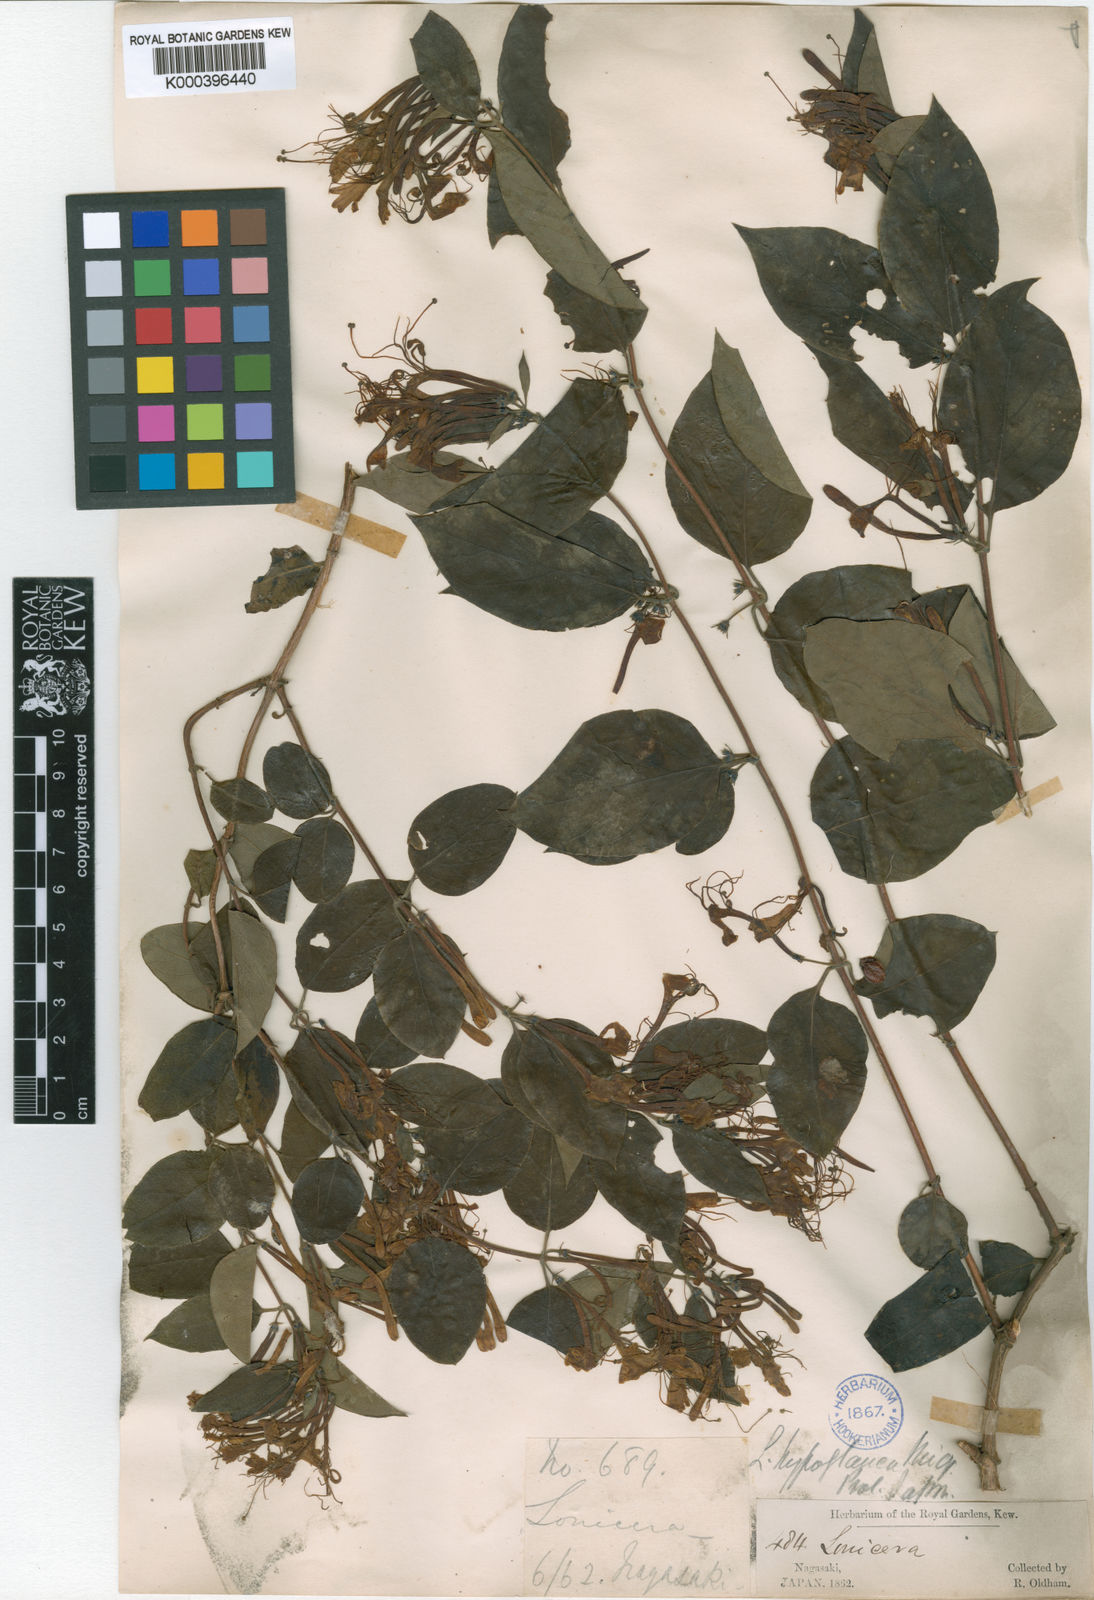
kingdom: Plantae
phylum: Tracheophyta
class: Magnoliopsida
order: Dipsacales
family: Caprifoliaceae
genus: Lonicera
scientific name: Lonicera hypoglauca
